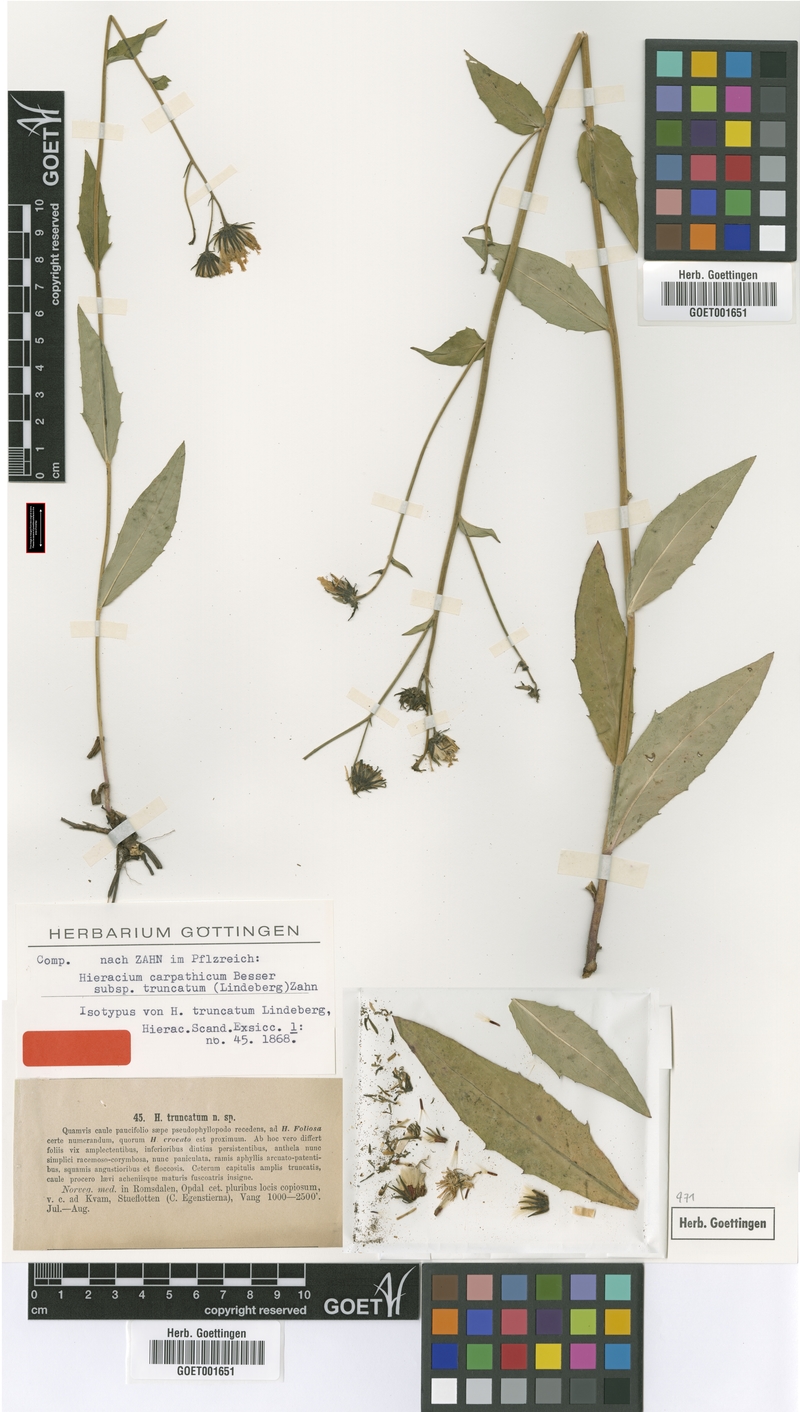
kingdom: Plantae
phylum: Tracheophyta
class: Magnoliopsida
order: Asterales
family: Asteraceae
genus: Hieracium
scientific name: Hieracium truncatum
